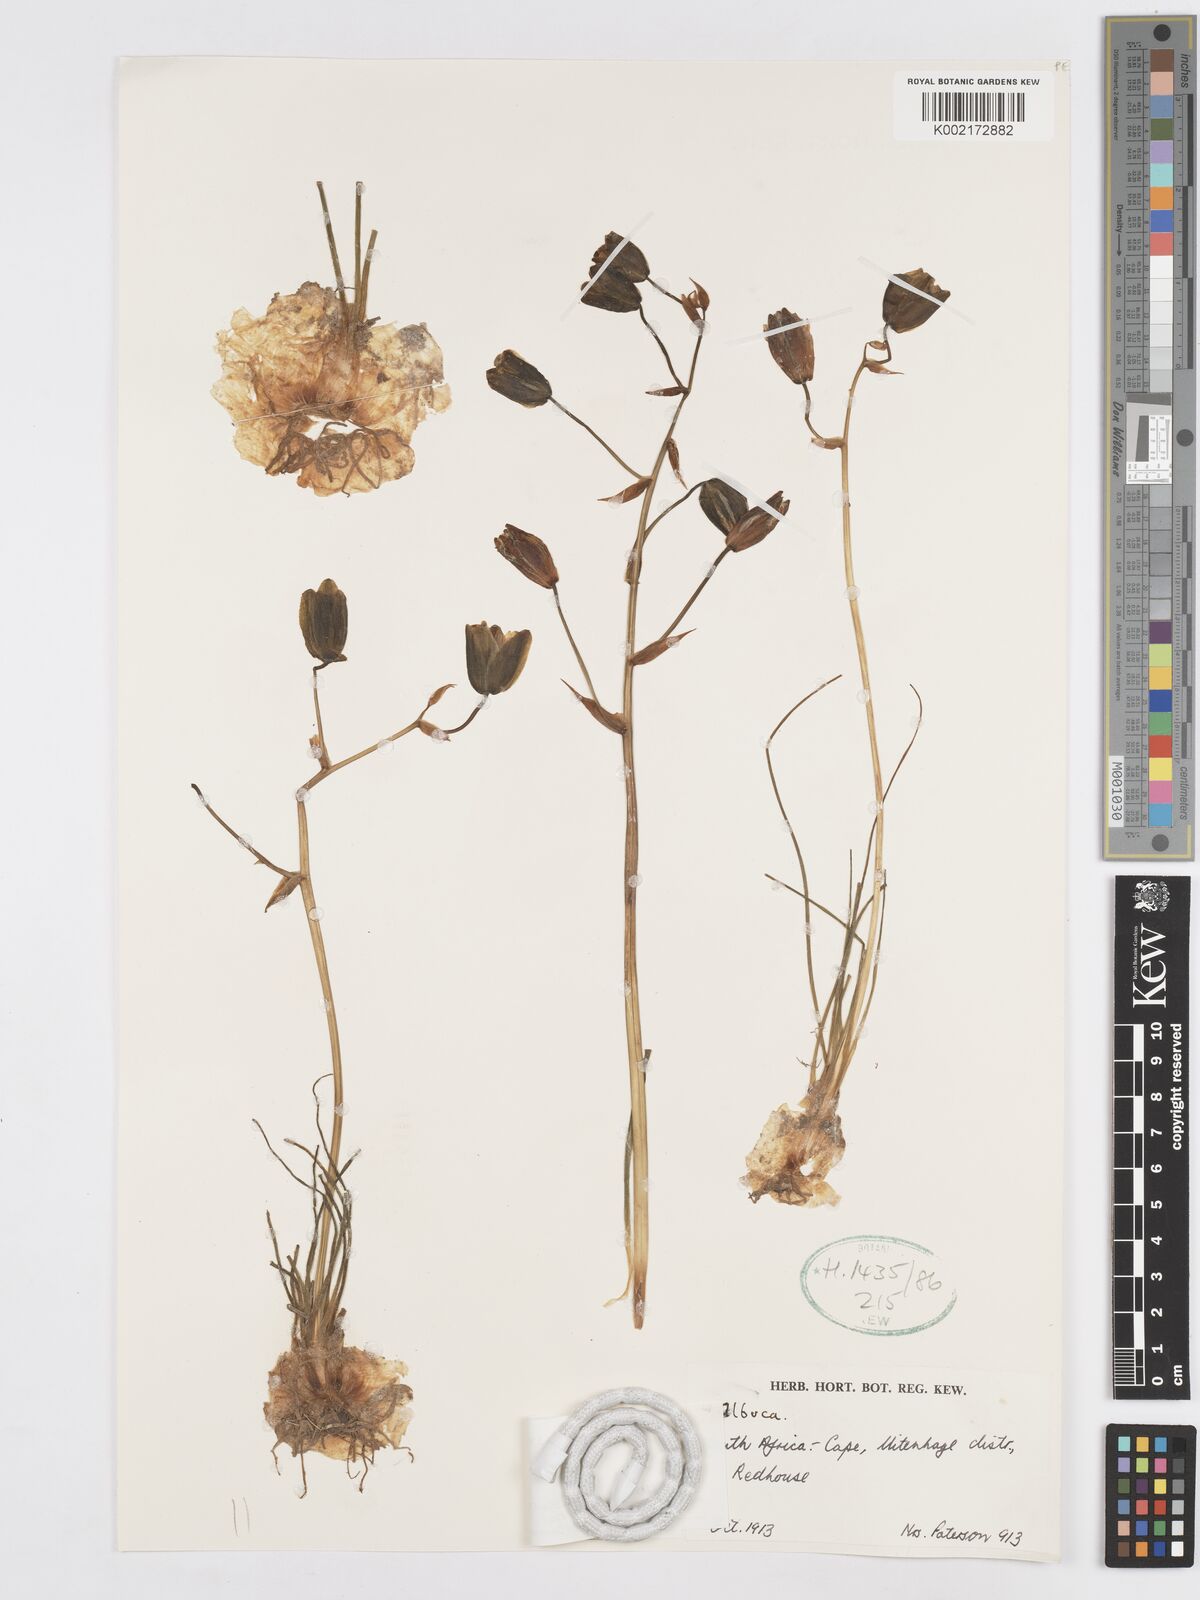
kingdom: Plantae
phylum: Tracheophyta
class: Liliopsida
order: Asparagales
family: Asparagaceae
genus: Albuca
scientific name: Albuca namaquensis
